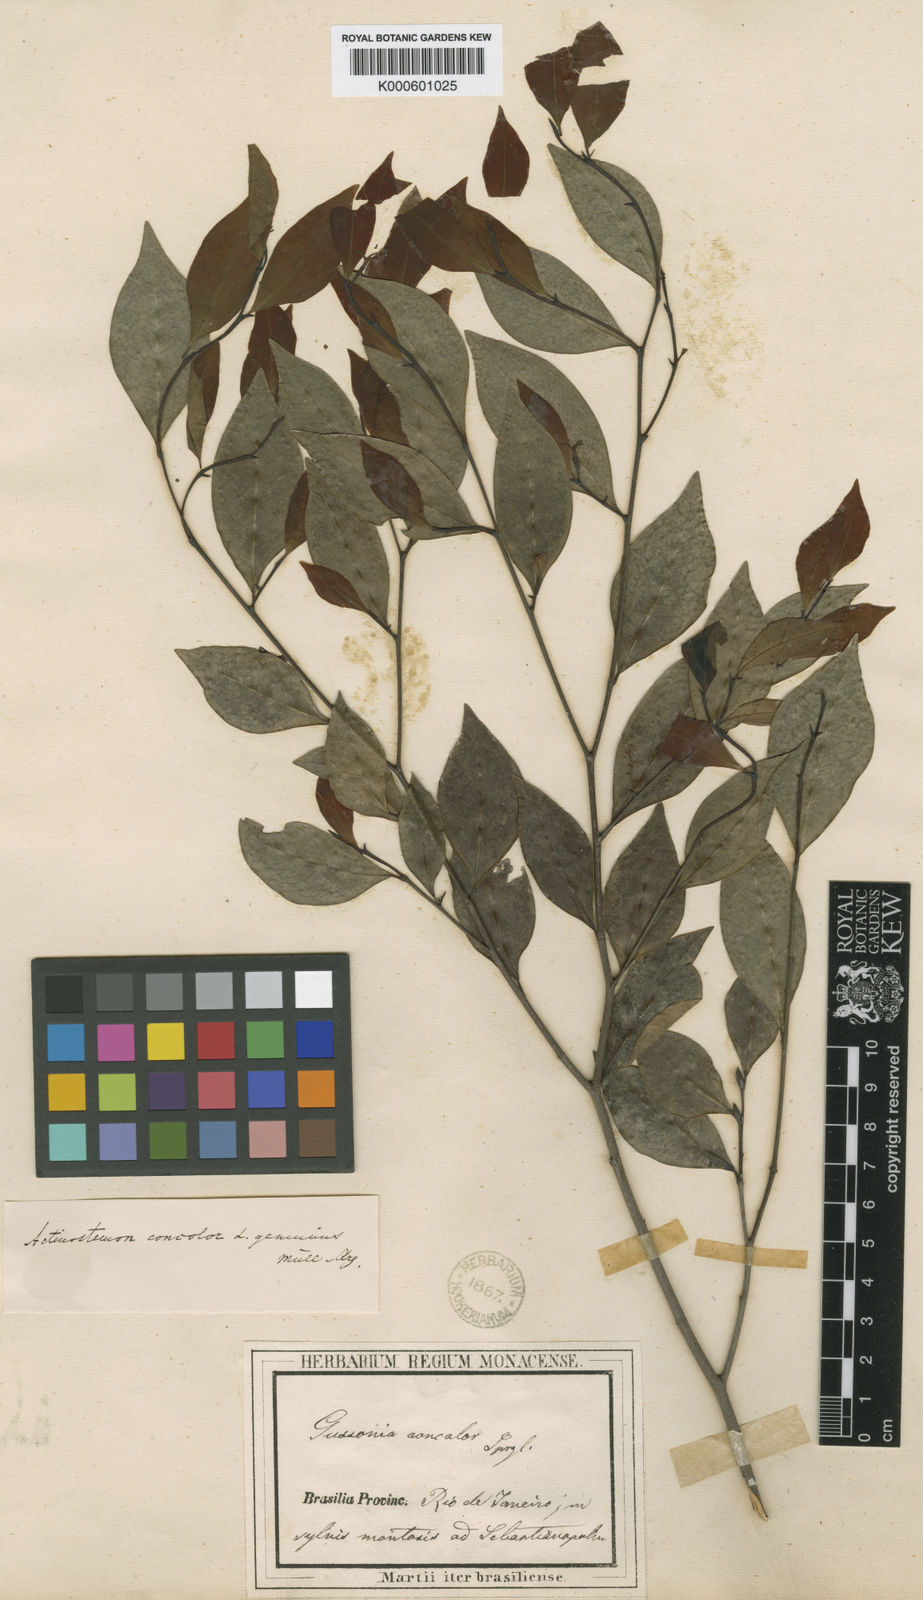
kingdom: Plantae
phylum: Tracheophyta
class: Magnoliopsida
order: Malpighiales
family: Euphorbiaceae
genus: Actinostemon
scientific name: Actinostemon
